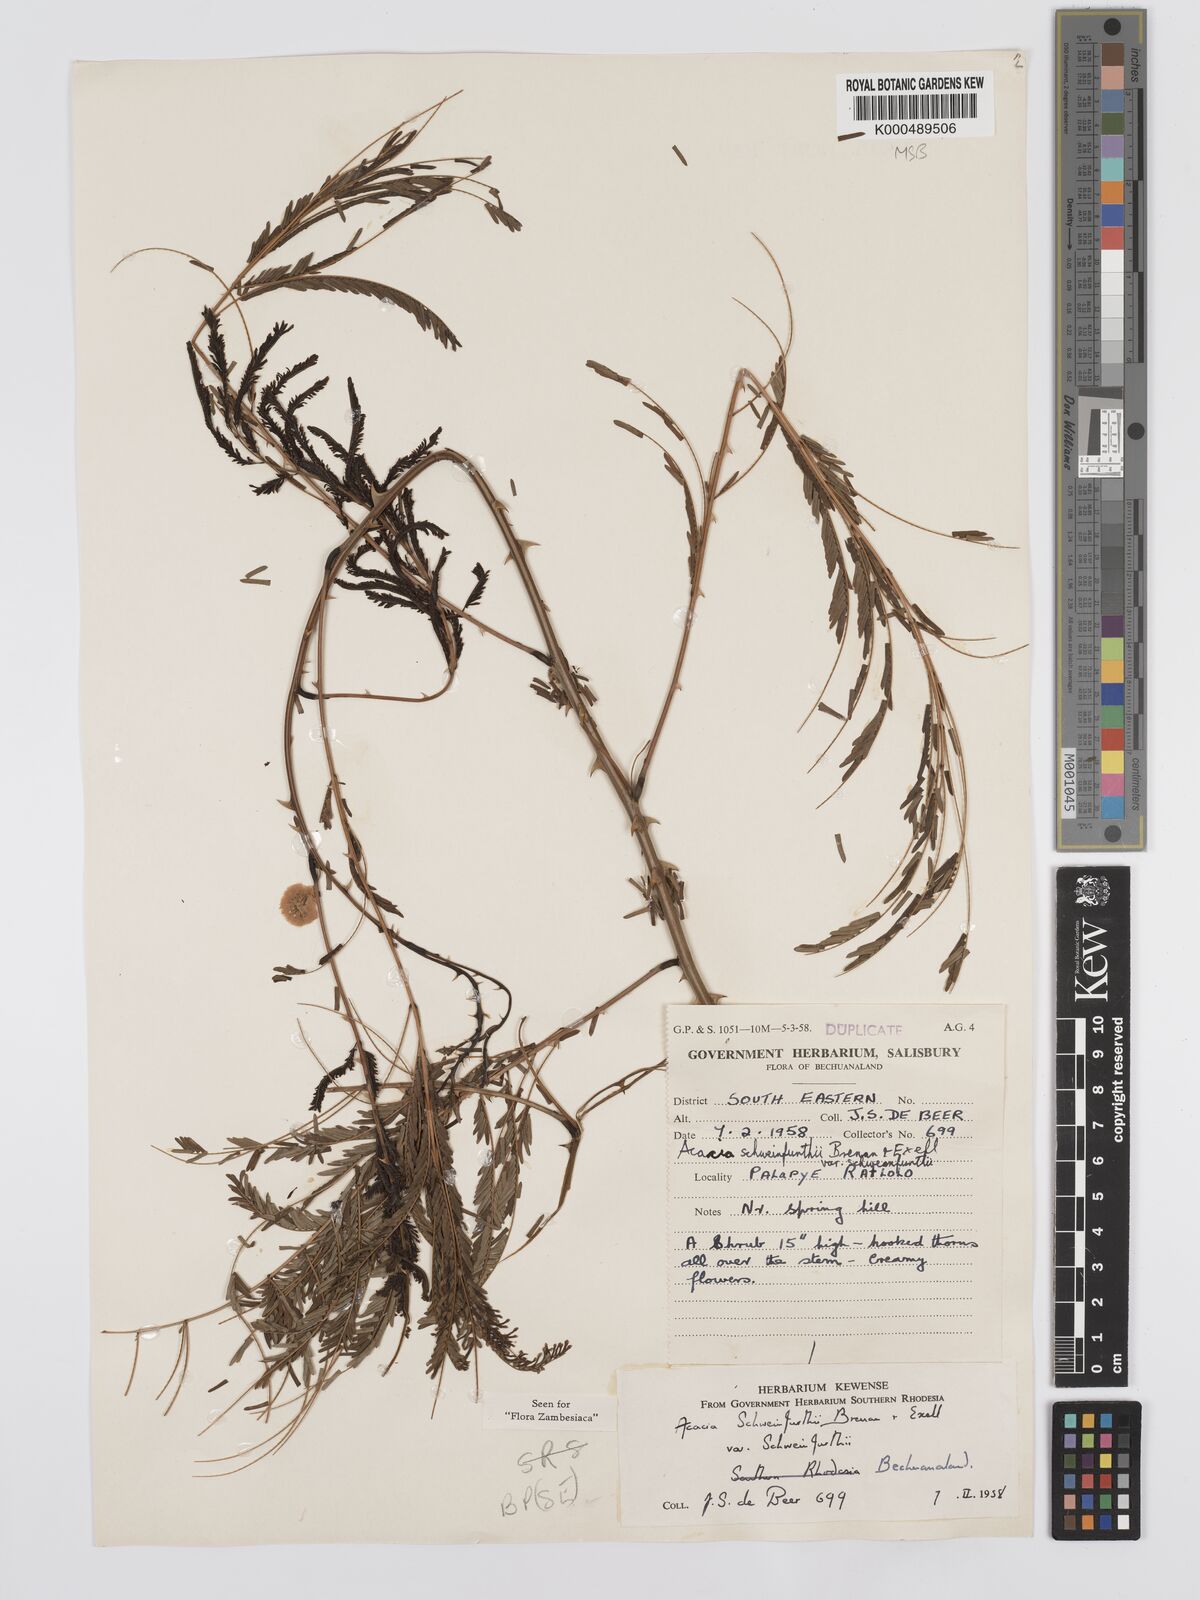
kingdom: Plantae
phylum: Tracheophyta
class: Magnoliopsida
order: Fabales
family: Fabaceae
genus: Senegalia
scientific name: Senegalia schweinfurthii
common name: River climbing acacia
